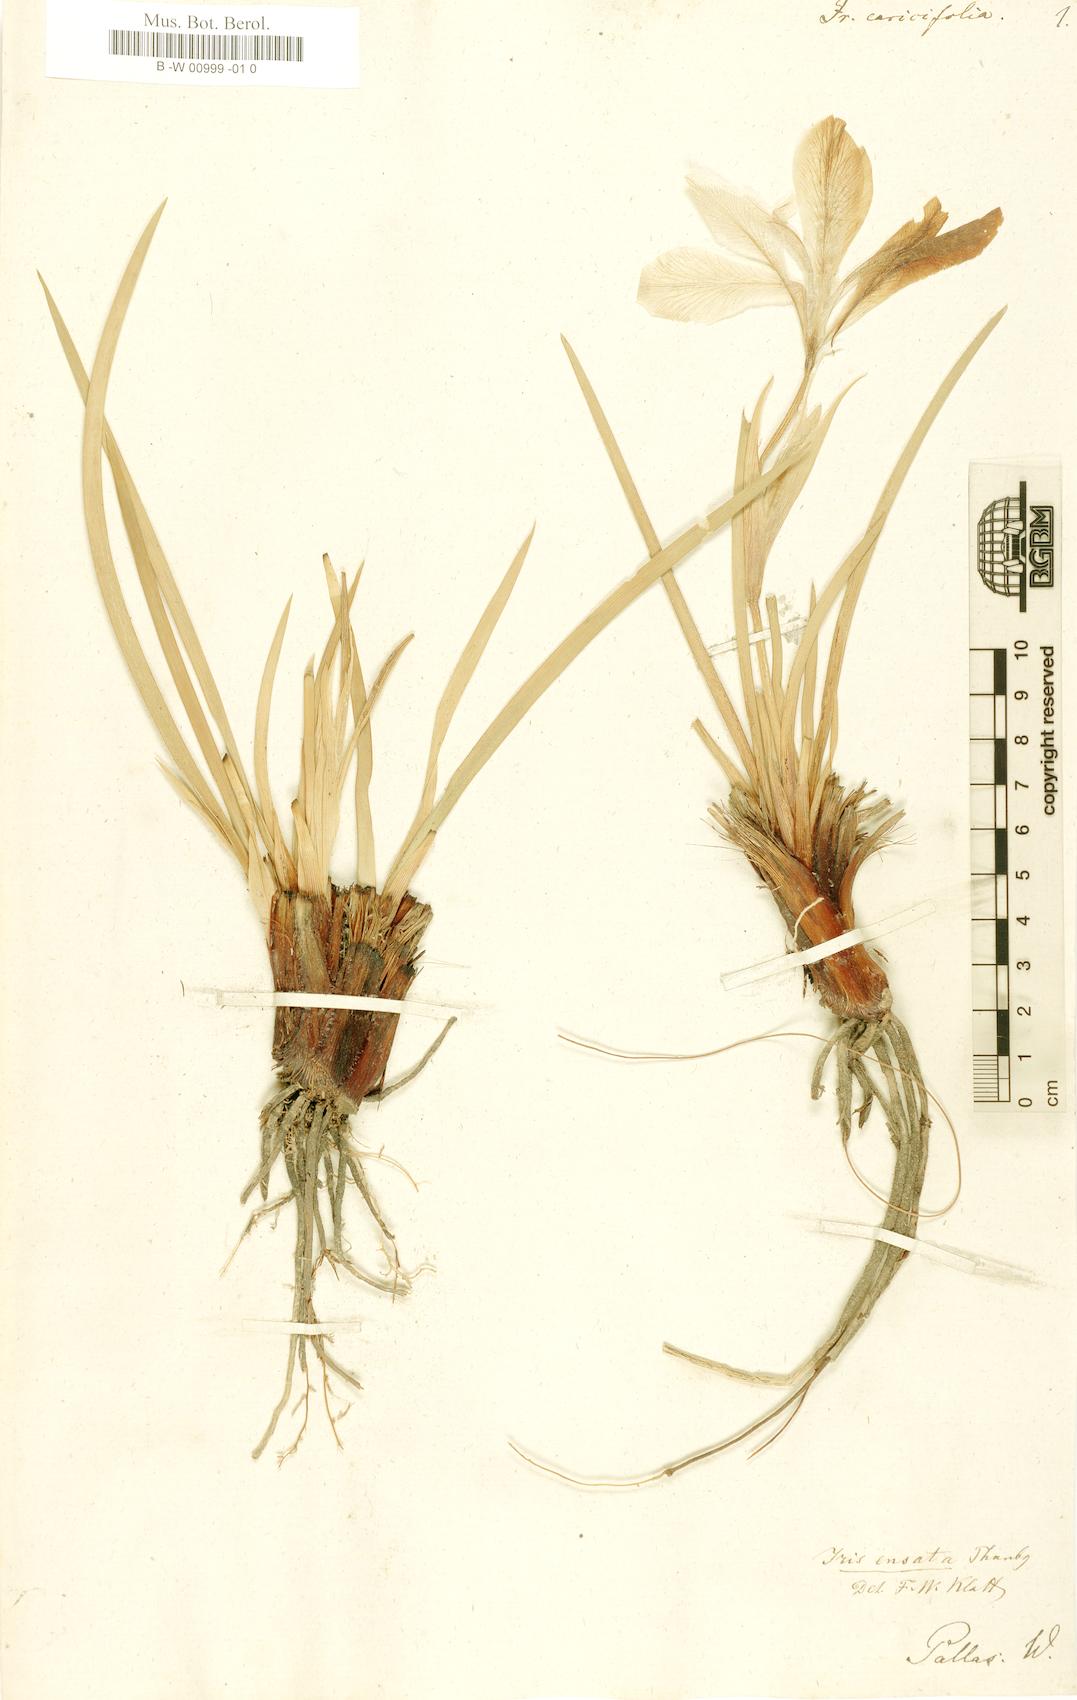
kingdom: Plantae
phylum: Tracheophyta
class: Liliopsida
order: Asparagales
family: Iridaceae
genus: Iris
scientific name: Iris lactea
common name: White-flower chinese iris
